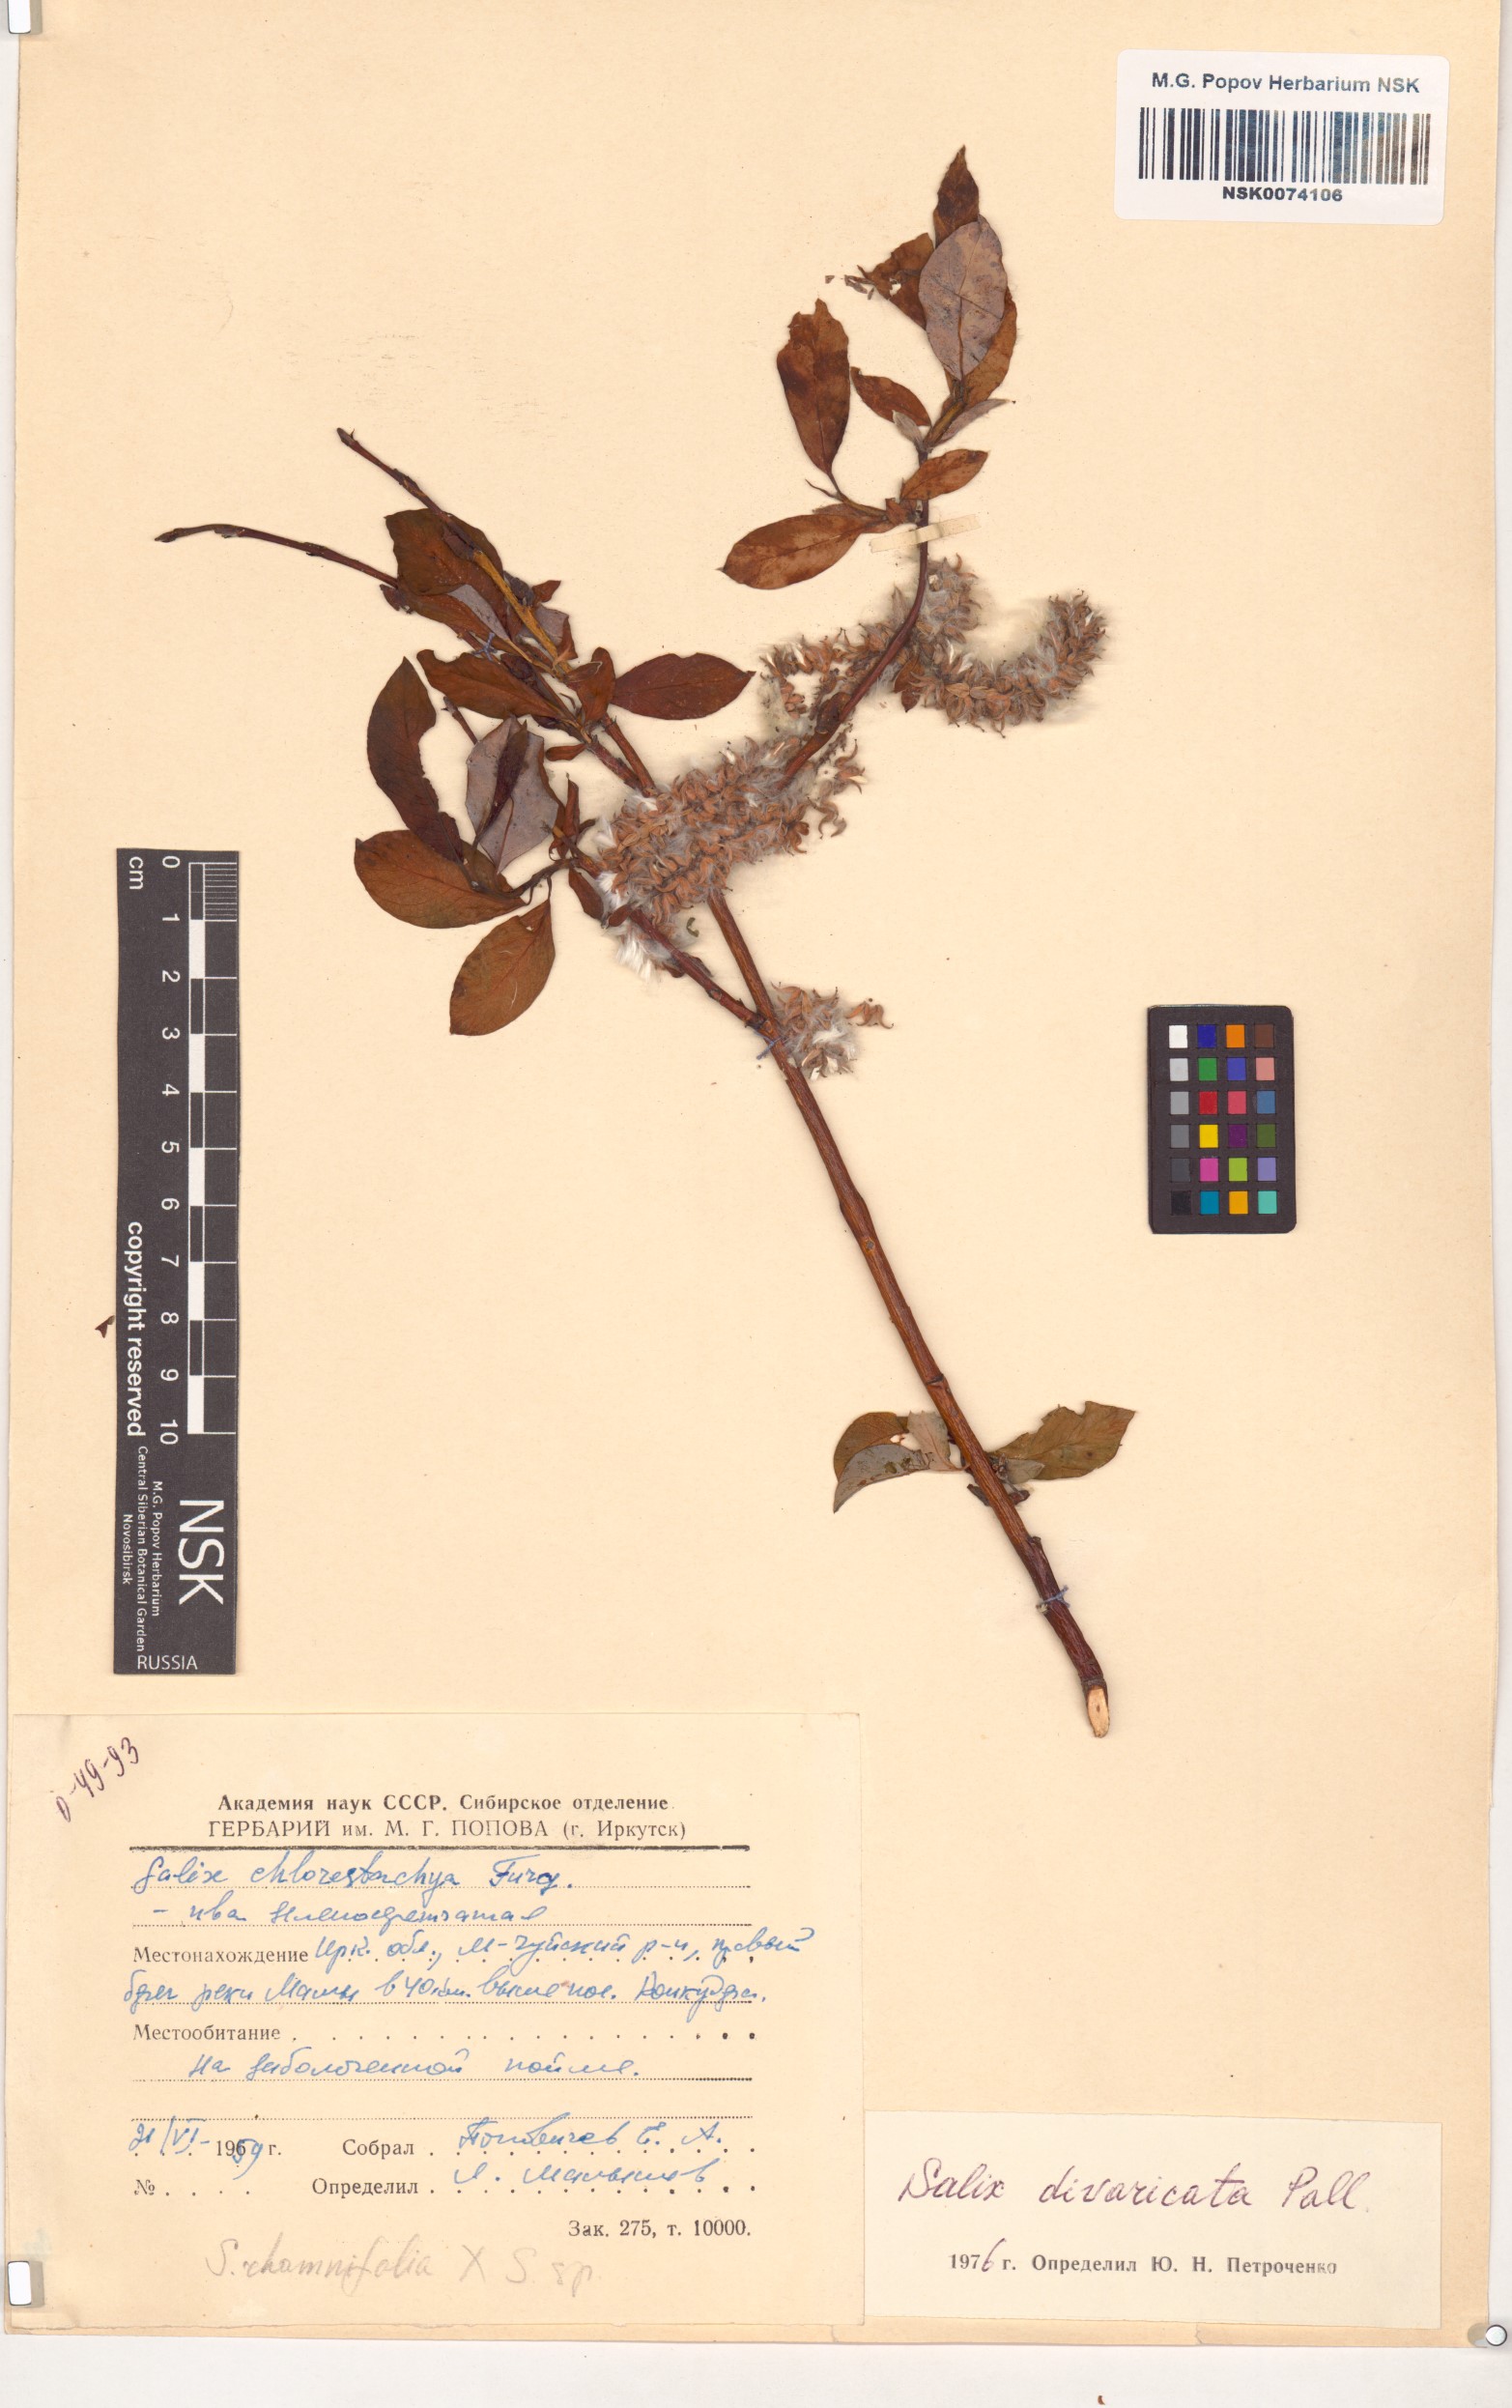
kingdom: Plantae
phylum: Tracheophyta
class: Magnoliopsida
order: Malpighiales
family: Salicaceae
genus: Salix
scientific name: Salix divaricata
